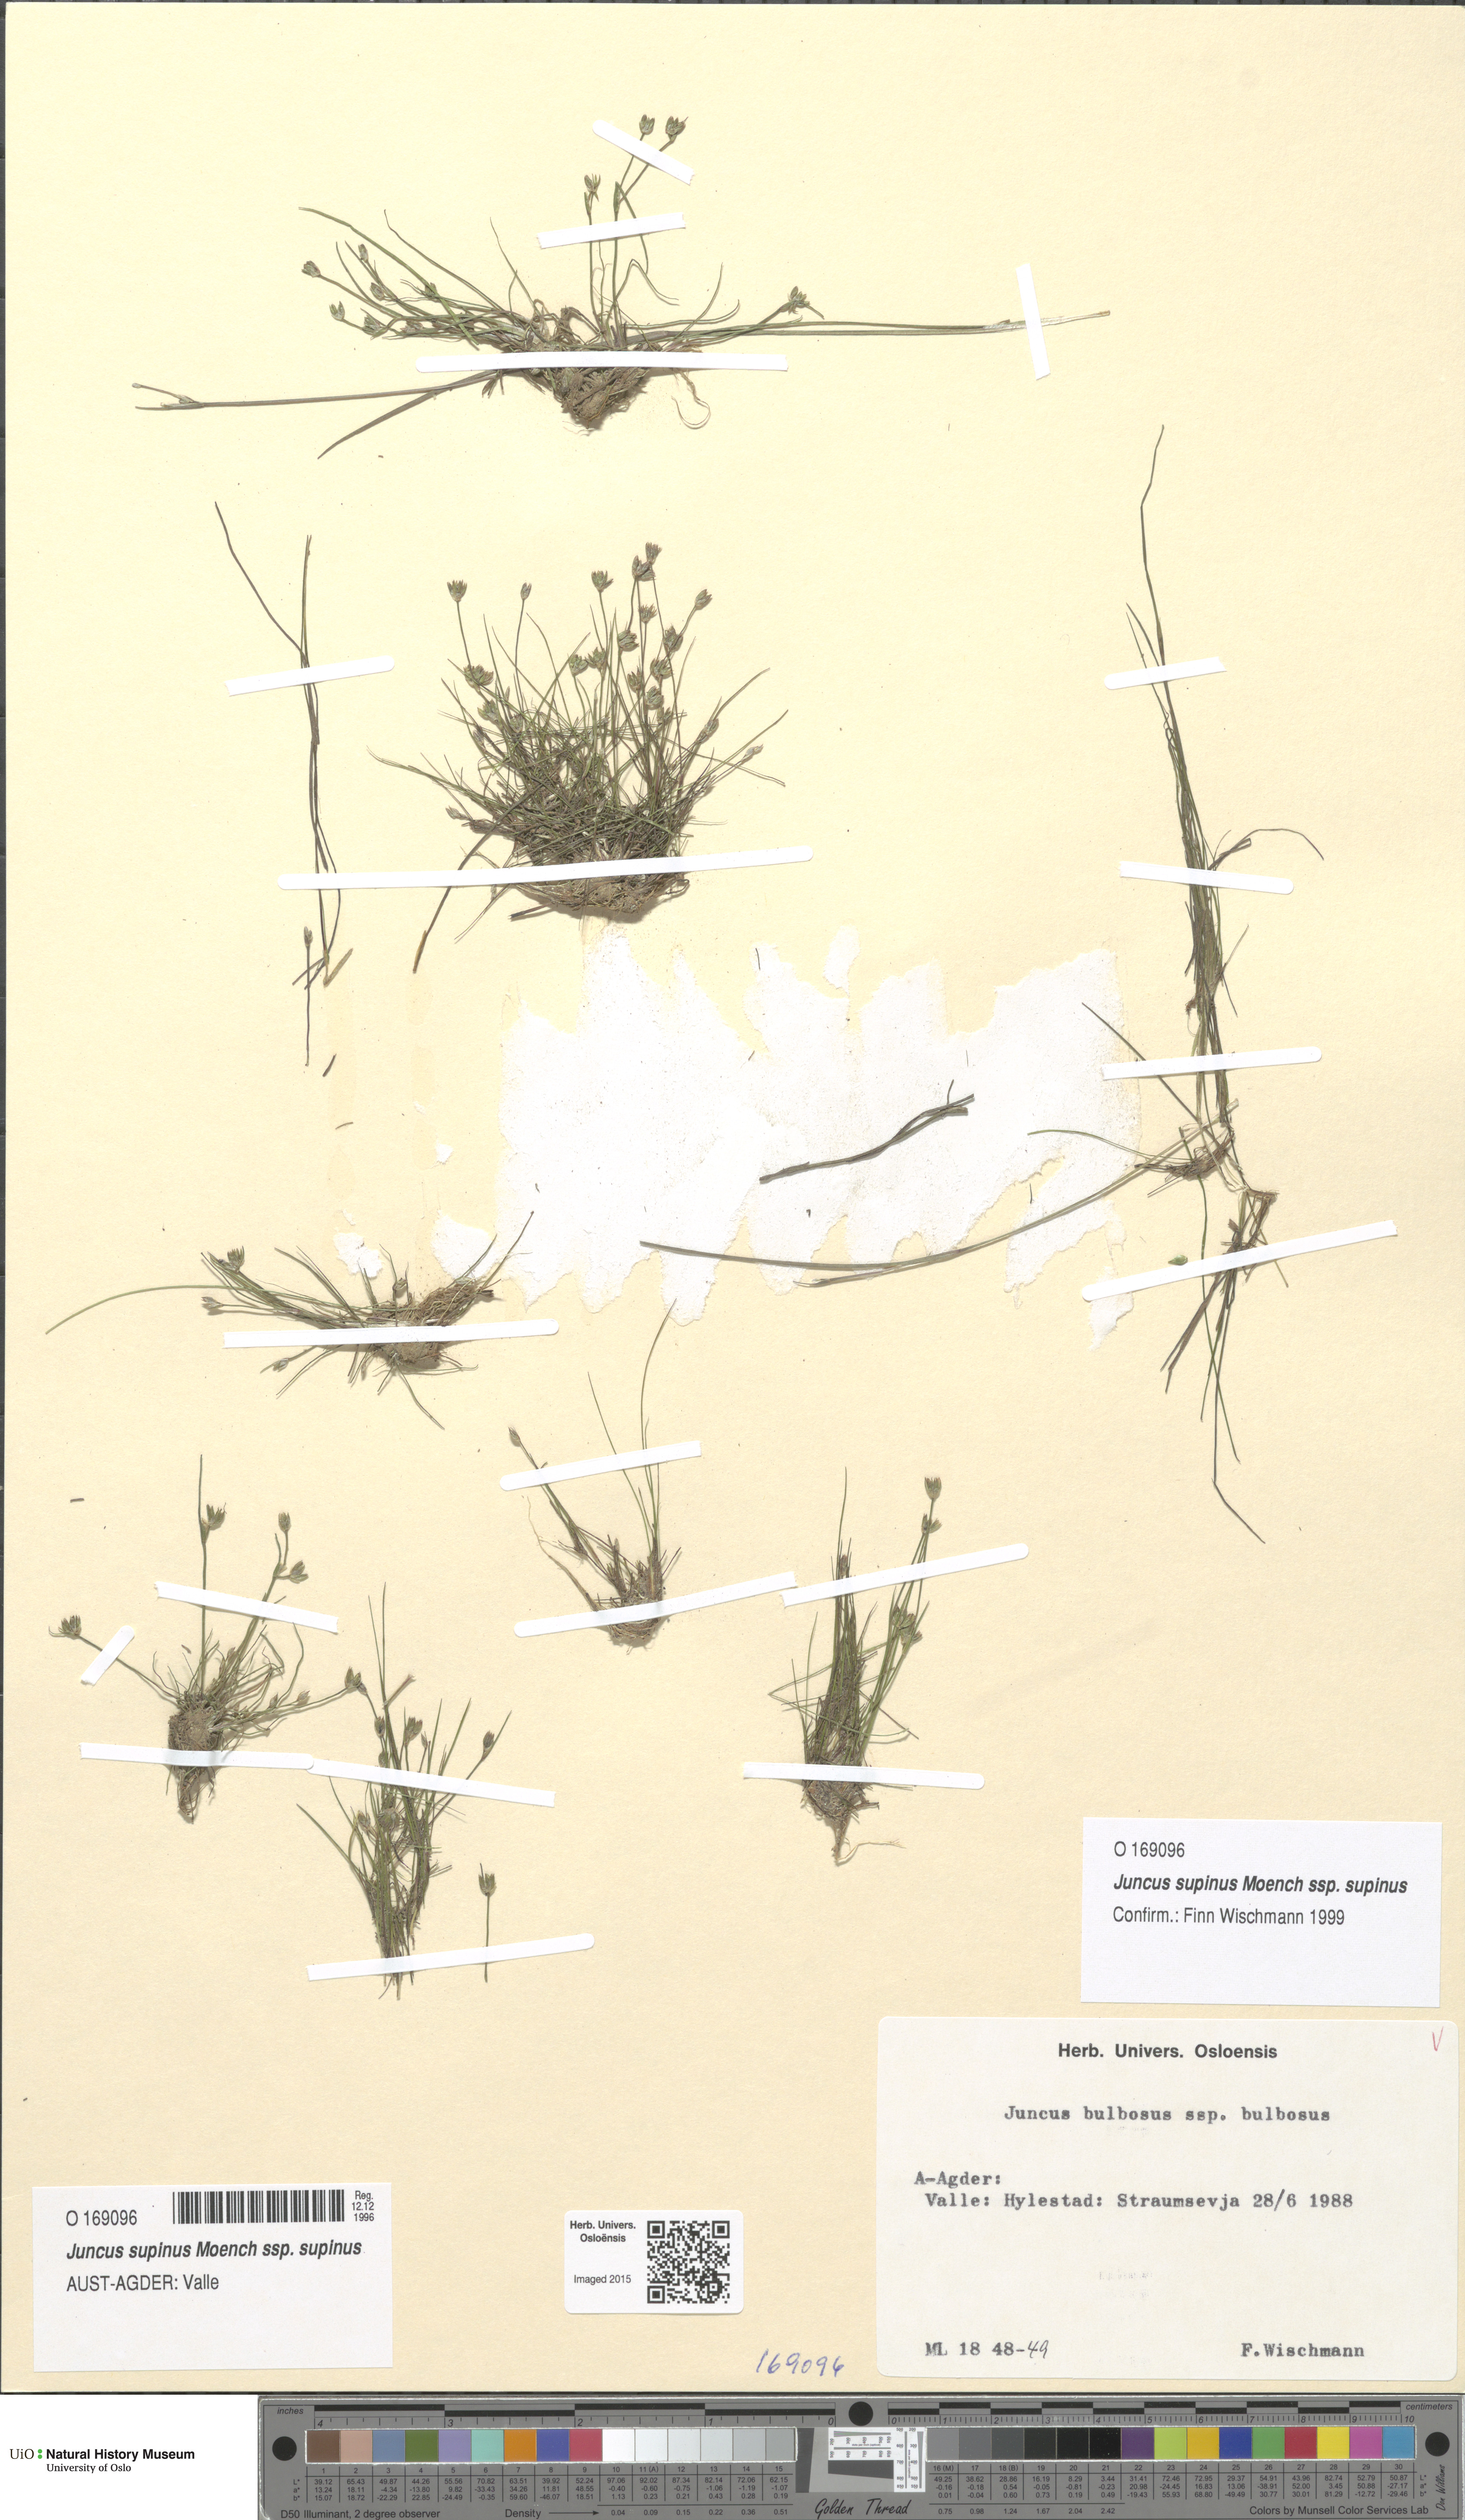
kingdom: Plantae
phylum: Tracheophyta
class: Liliopsida
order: Poales
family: Juncaceae
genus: Juncus
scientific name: Juncus bulbosus
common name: Bulbous rush
